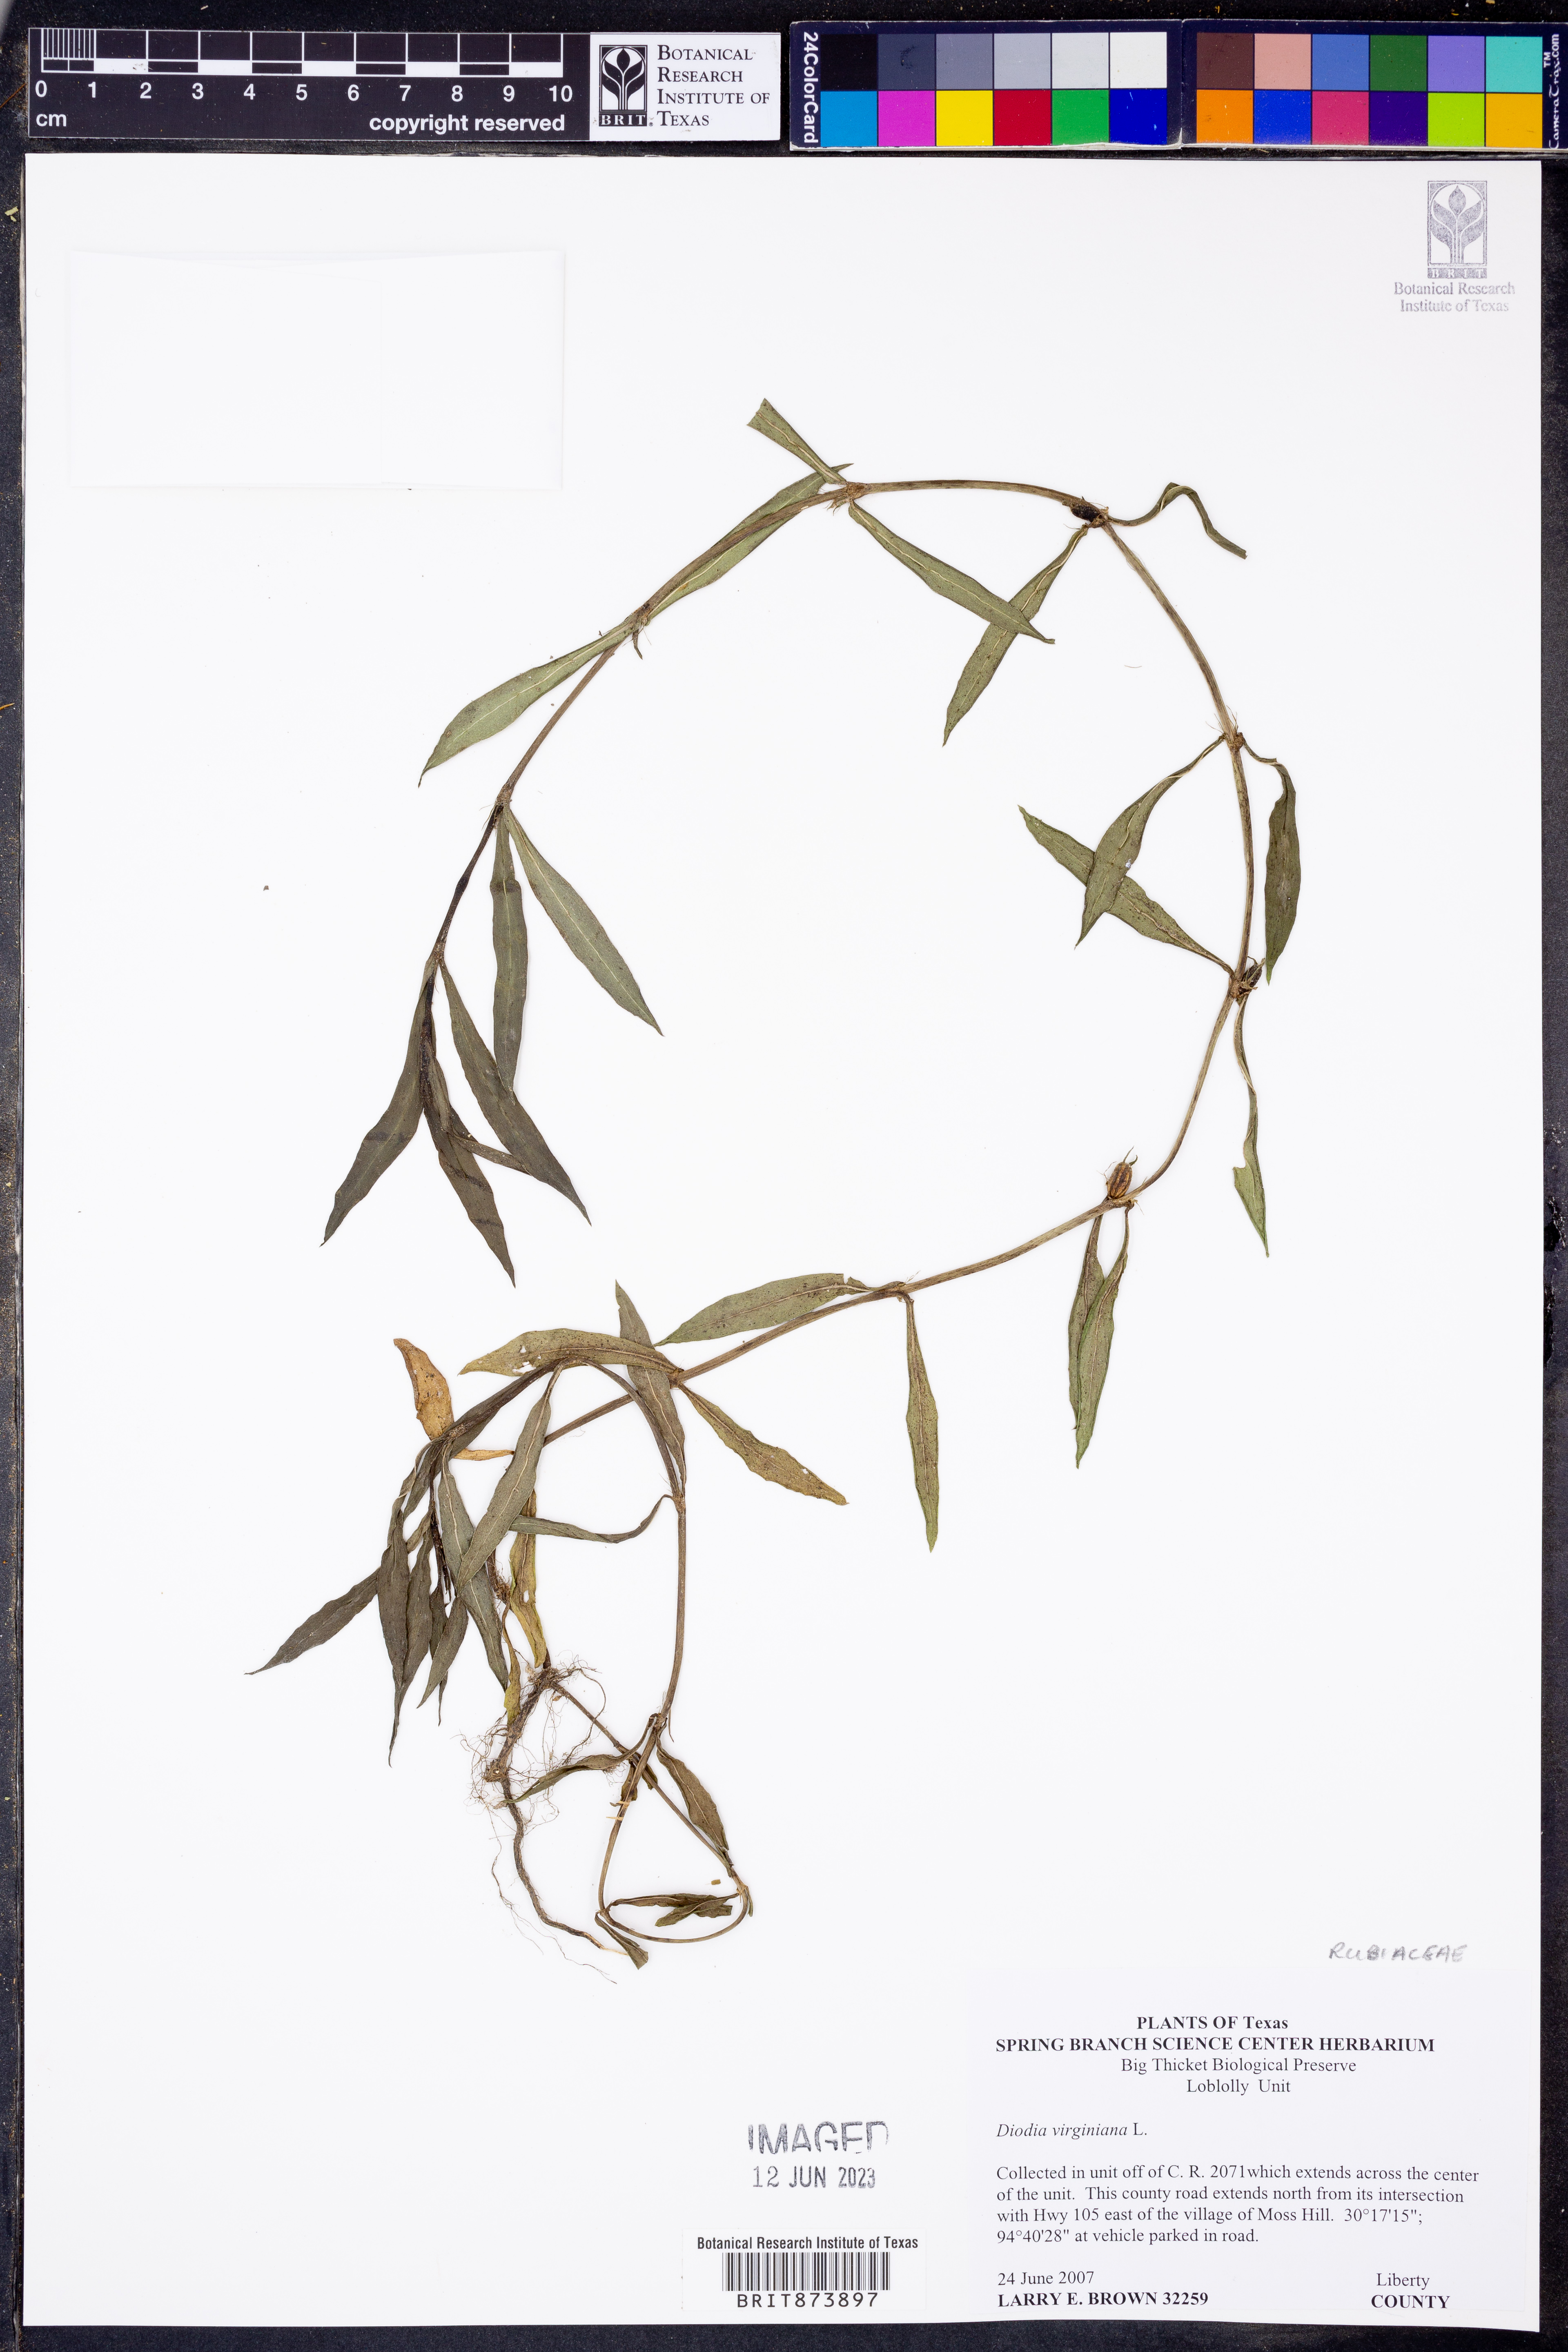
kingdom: Plantae
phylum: Tracheophyta
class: Magnoliopsida
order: Gentianales
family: Rubiaceae
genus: Diodia
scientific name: Diodia virginiana
